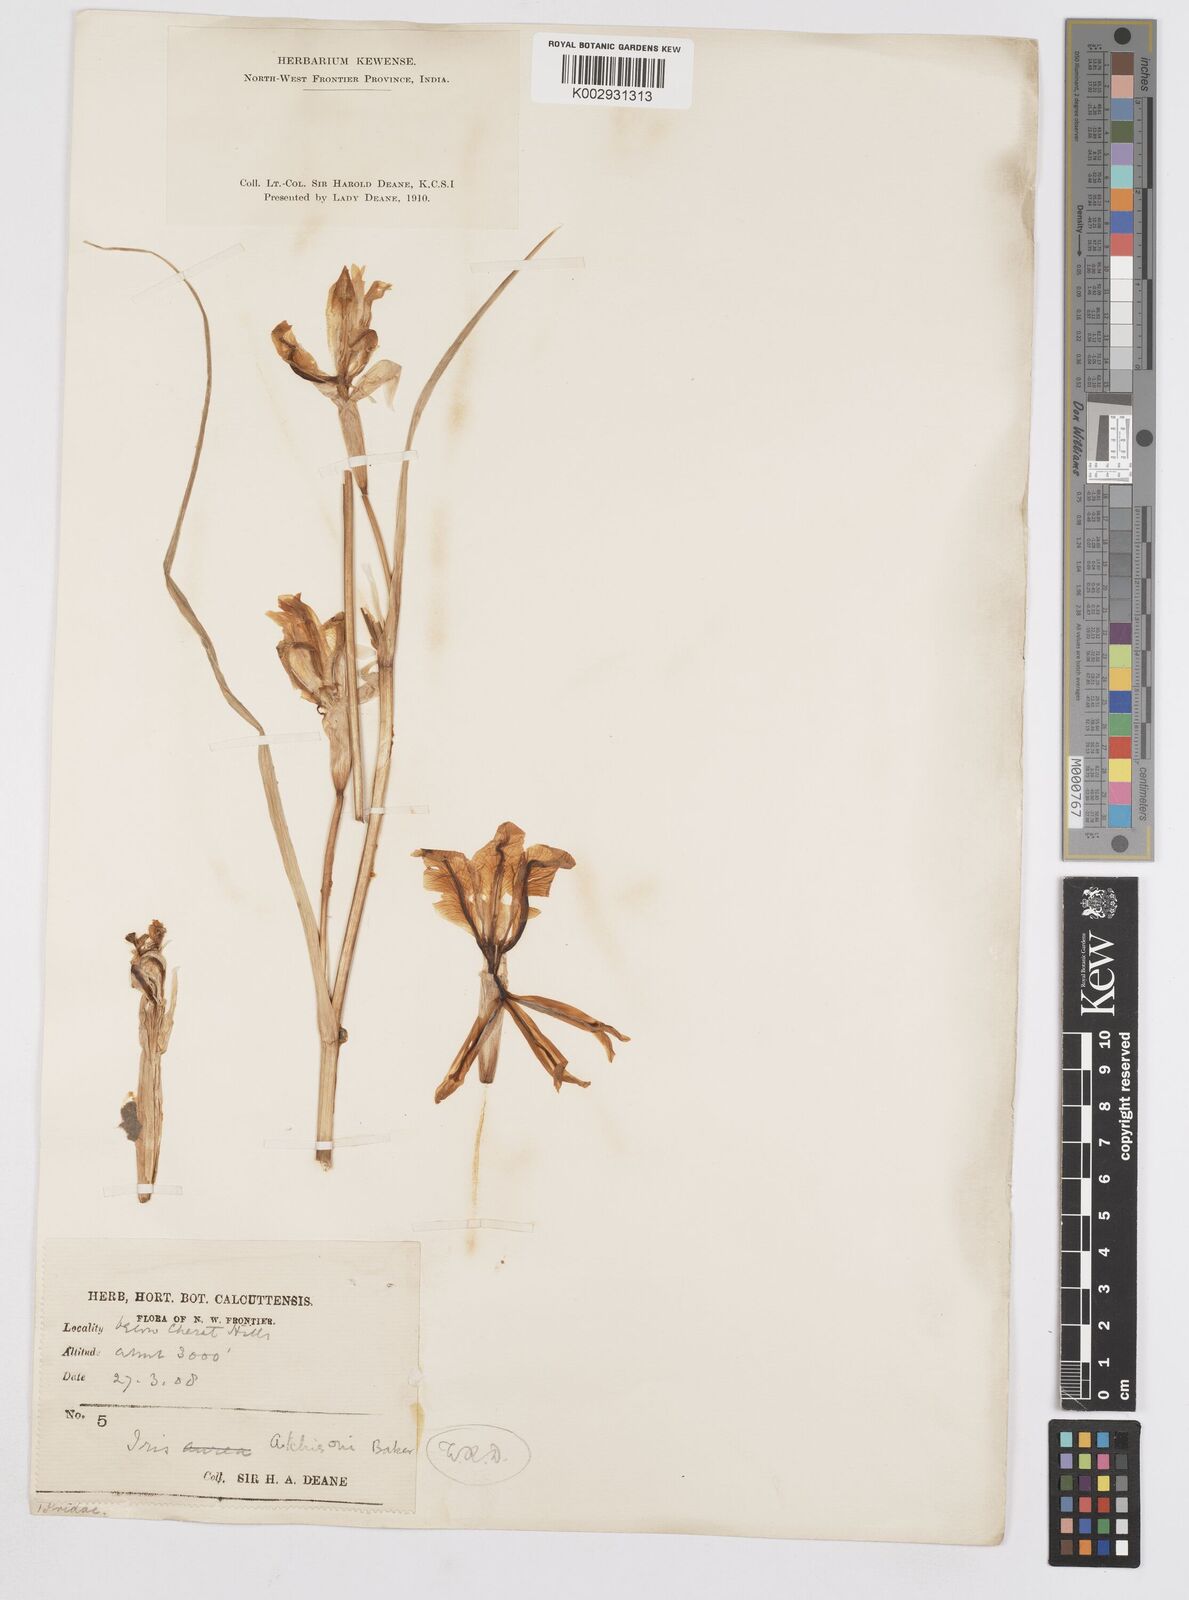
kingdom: Plantae
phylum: Tracheophyta
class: Liliopsida
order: Asparagales
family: Iridaceae
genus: Iris
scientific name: Iris aitchisonii
